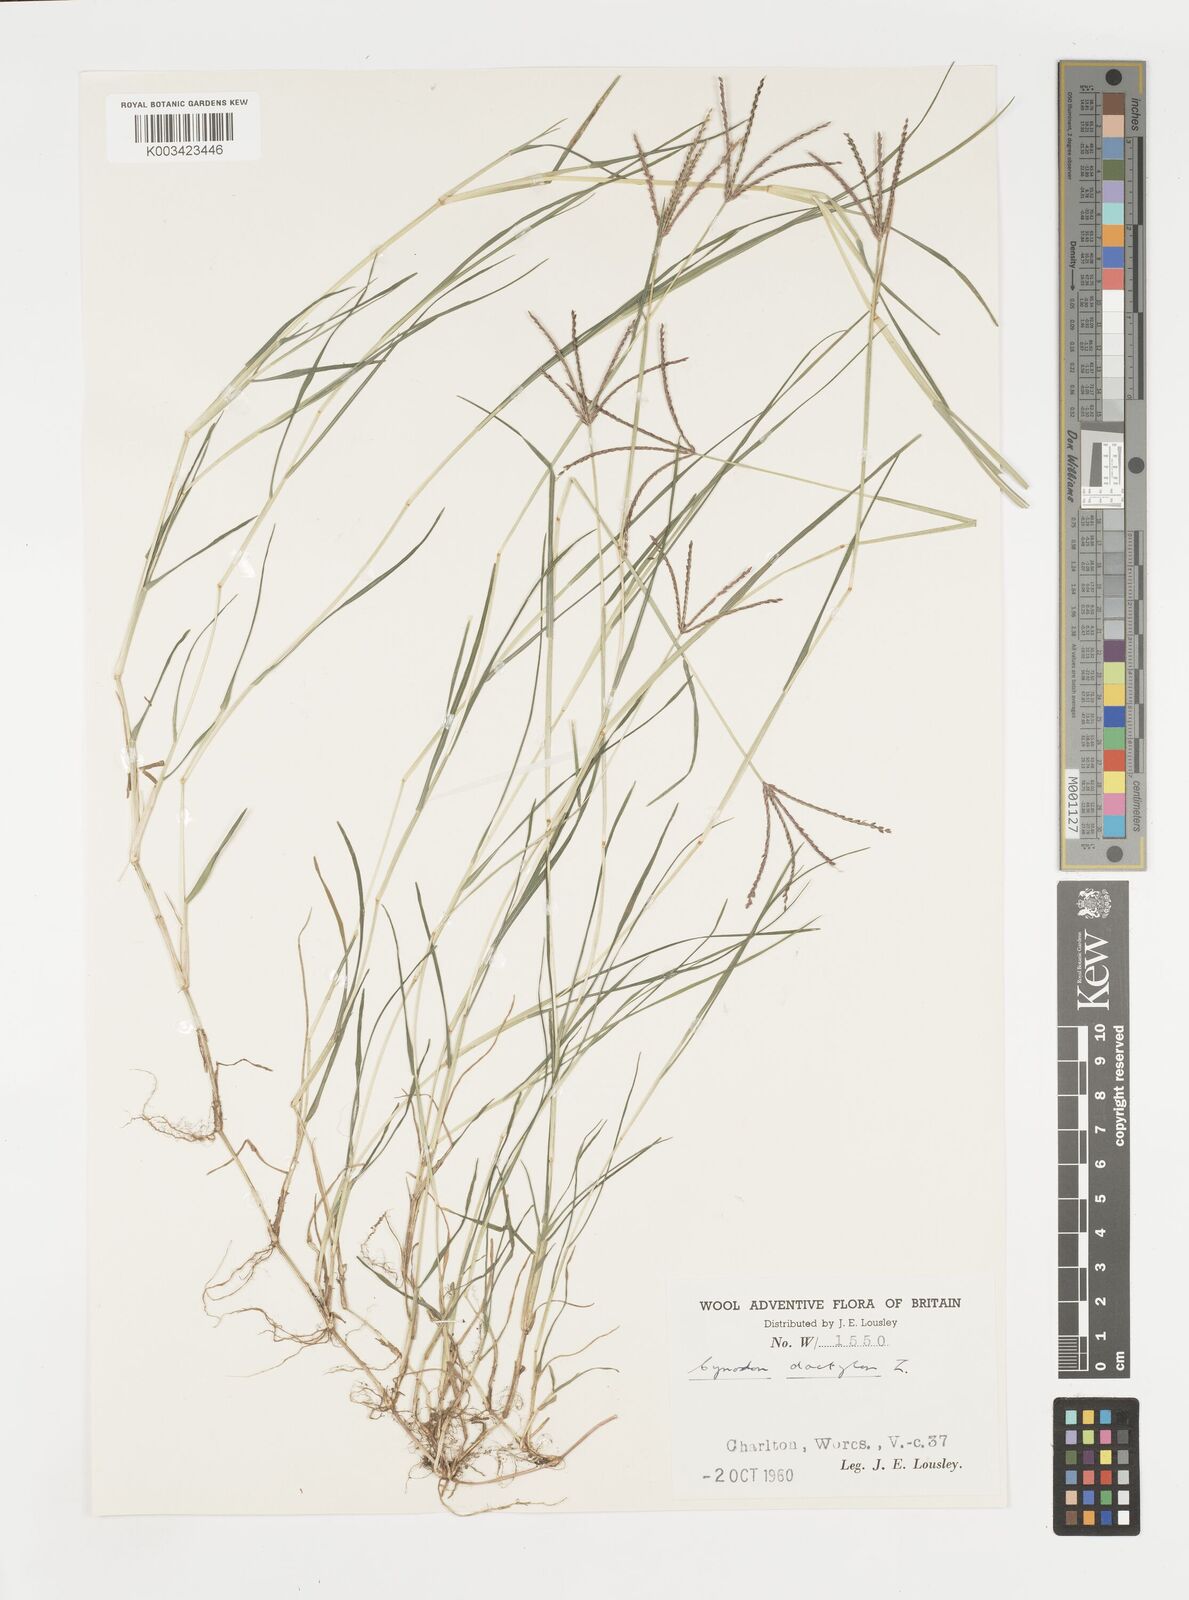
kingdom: Plantae
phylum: Tracheophyta
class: Liliopsida
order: Poales
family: Poaceae
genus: Cynodon
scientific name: Cynodon dactylon
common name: Bermuda grass
